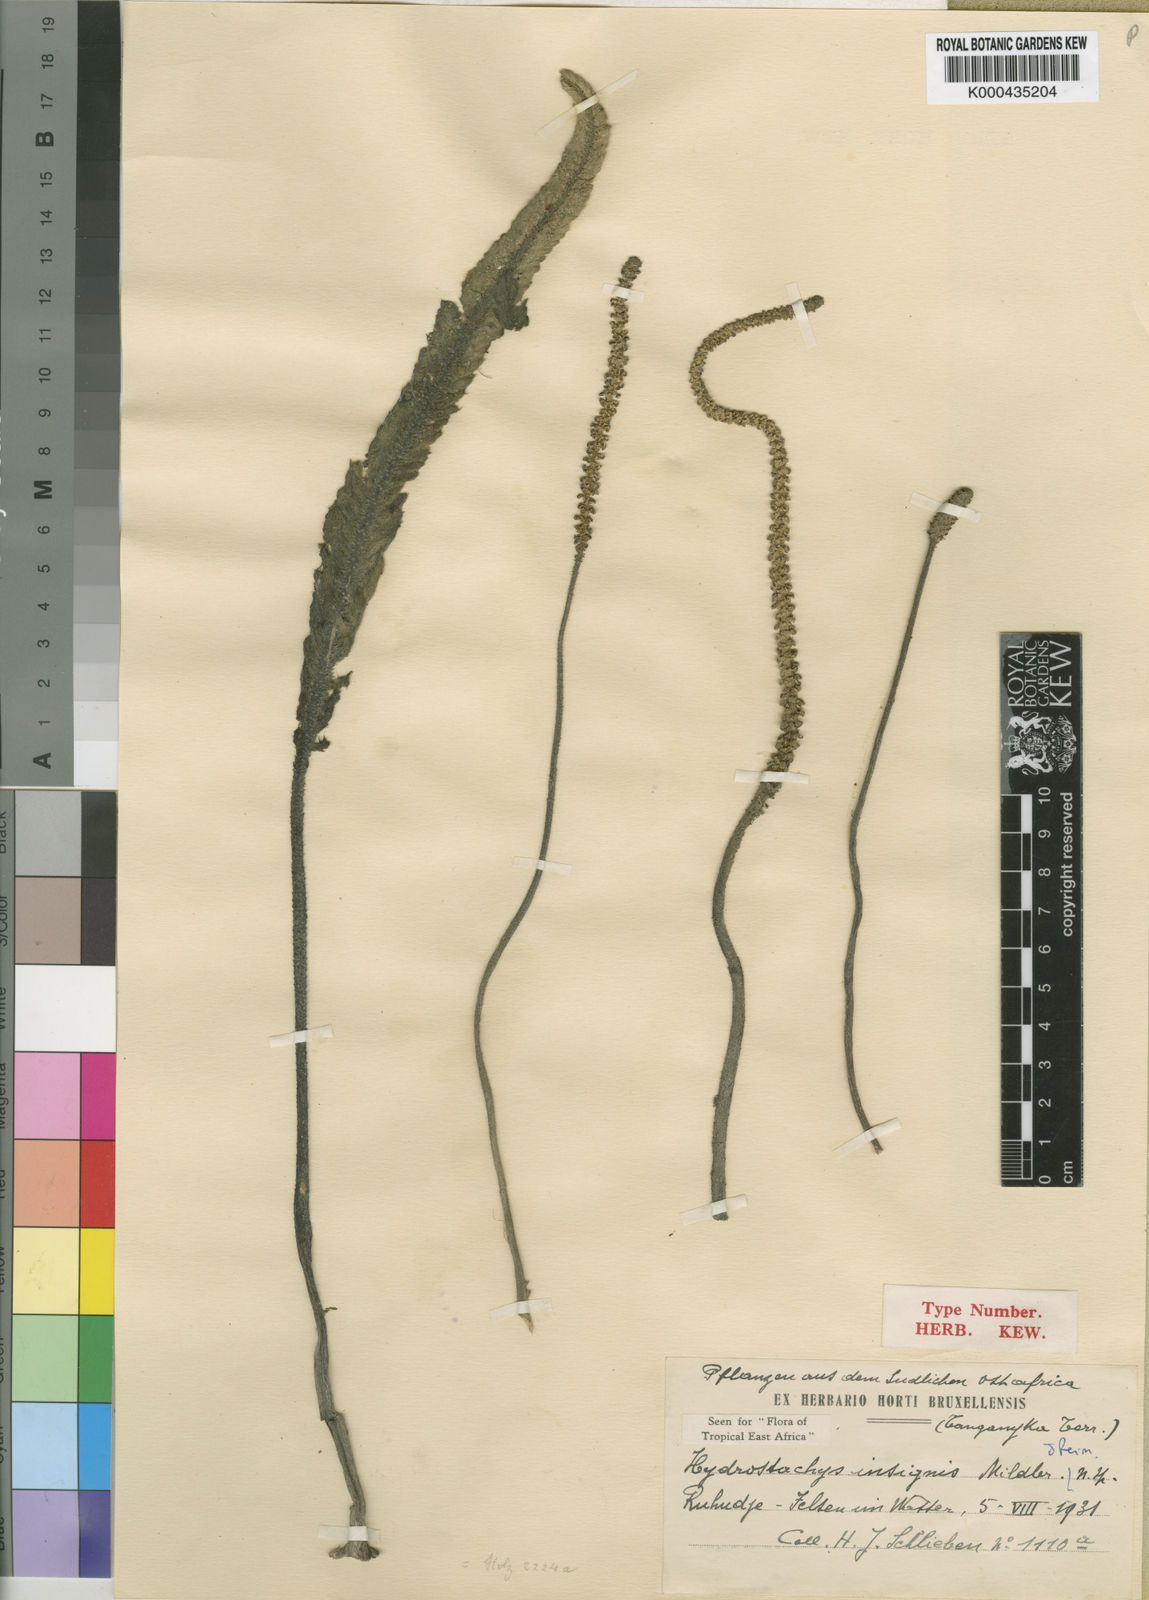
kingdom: Plantae
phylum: Tracheophyta
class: Magnoliopsida
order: Cornales
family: Hydrostachyaceae
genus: Hydrostachys
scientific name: Hydrostachys insignis
